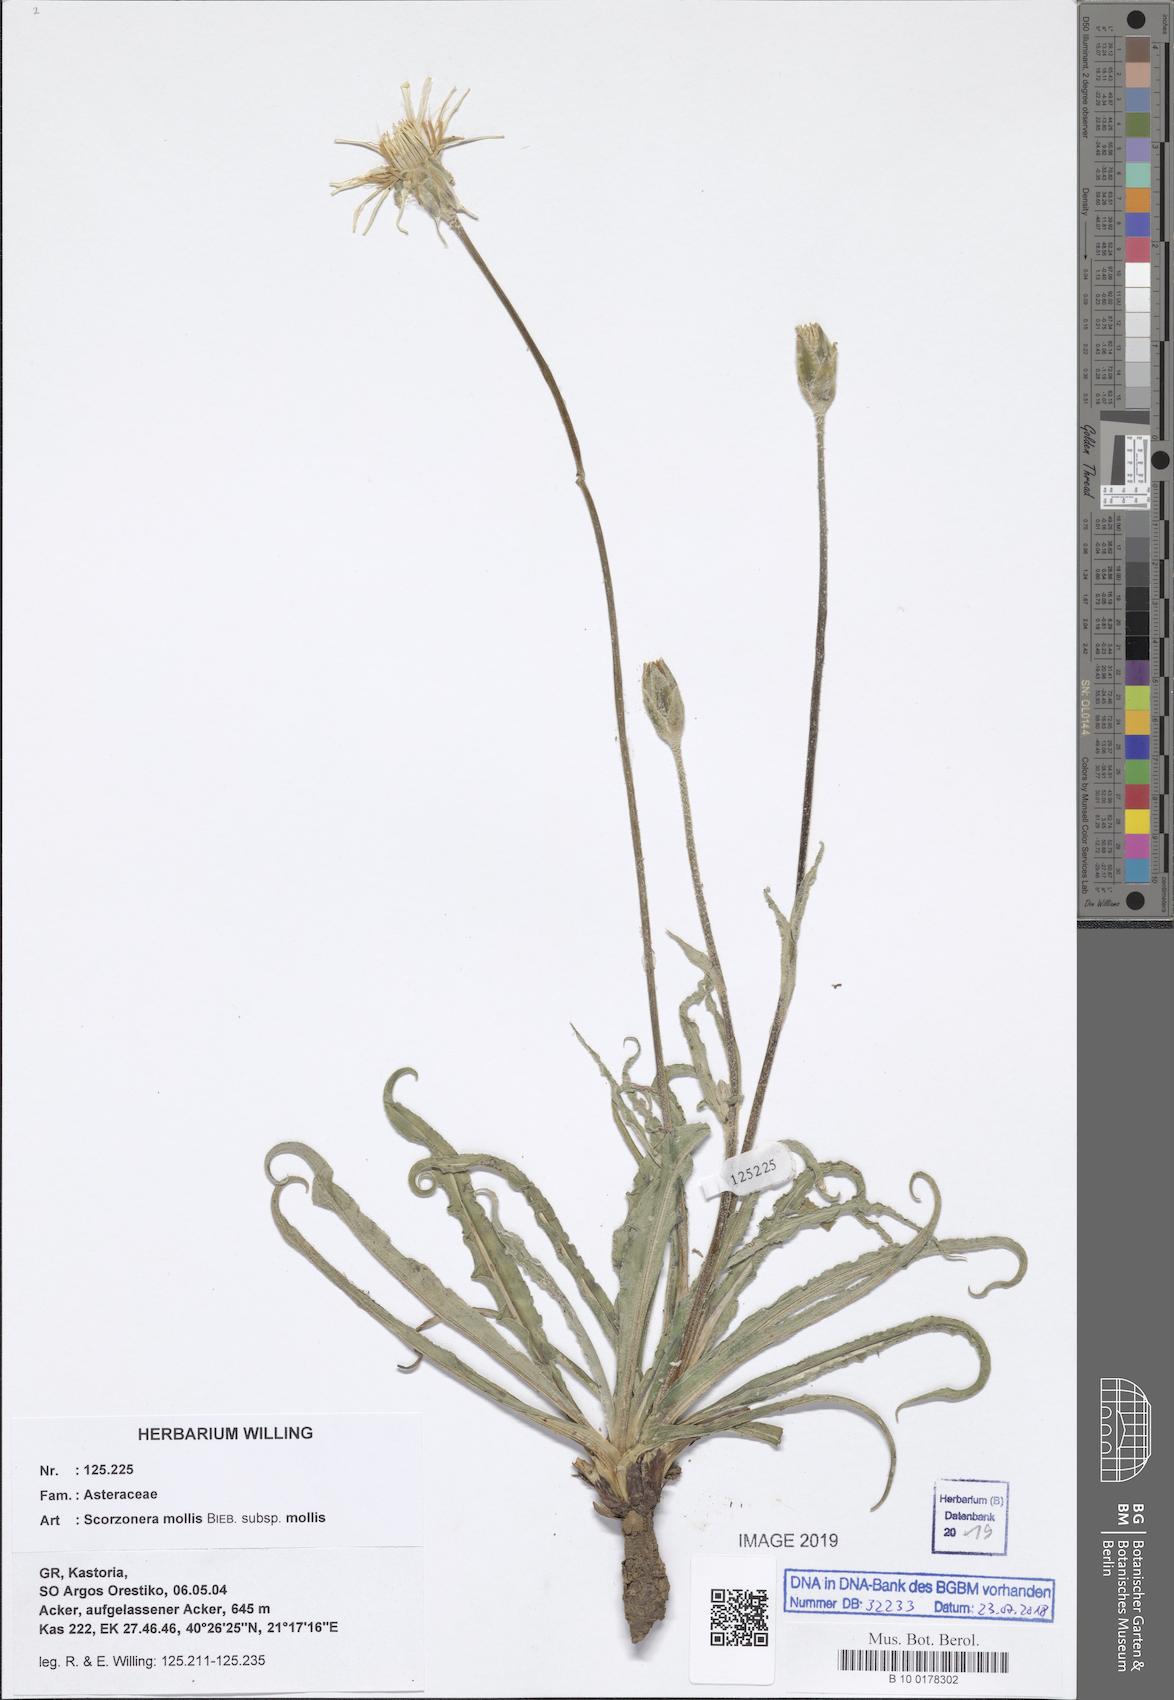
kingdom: Plantae
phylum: Tracheophyta
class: Magnoliopsida
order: Asterales
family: Asteraceae
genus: Candollea
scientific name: Candollea mollis
